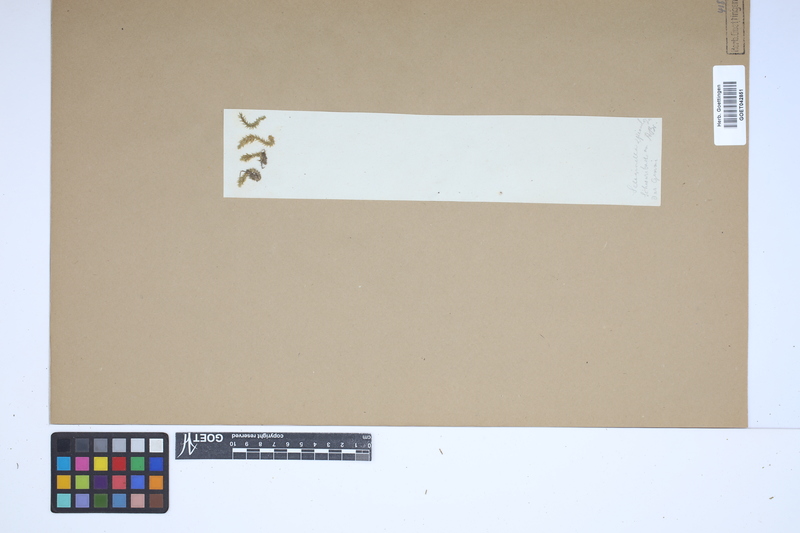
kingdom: Plantae
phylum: Tracheophyta
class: Lycopodiopsida
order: Selaginellales
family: Selaginellaceae
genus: Selaginella
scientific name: Selaginella selaginoides
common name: Prickly mountain-moss
